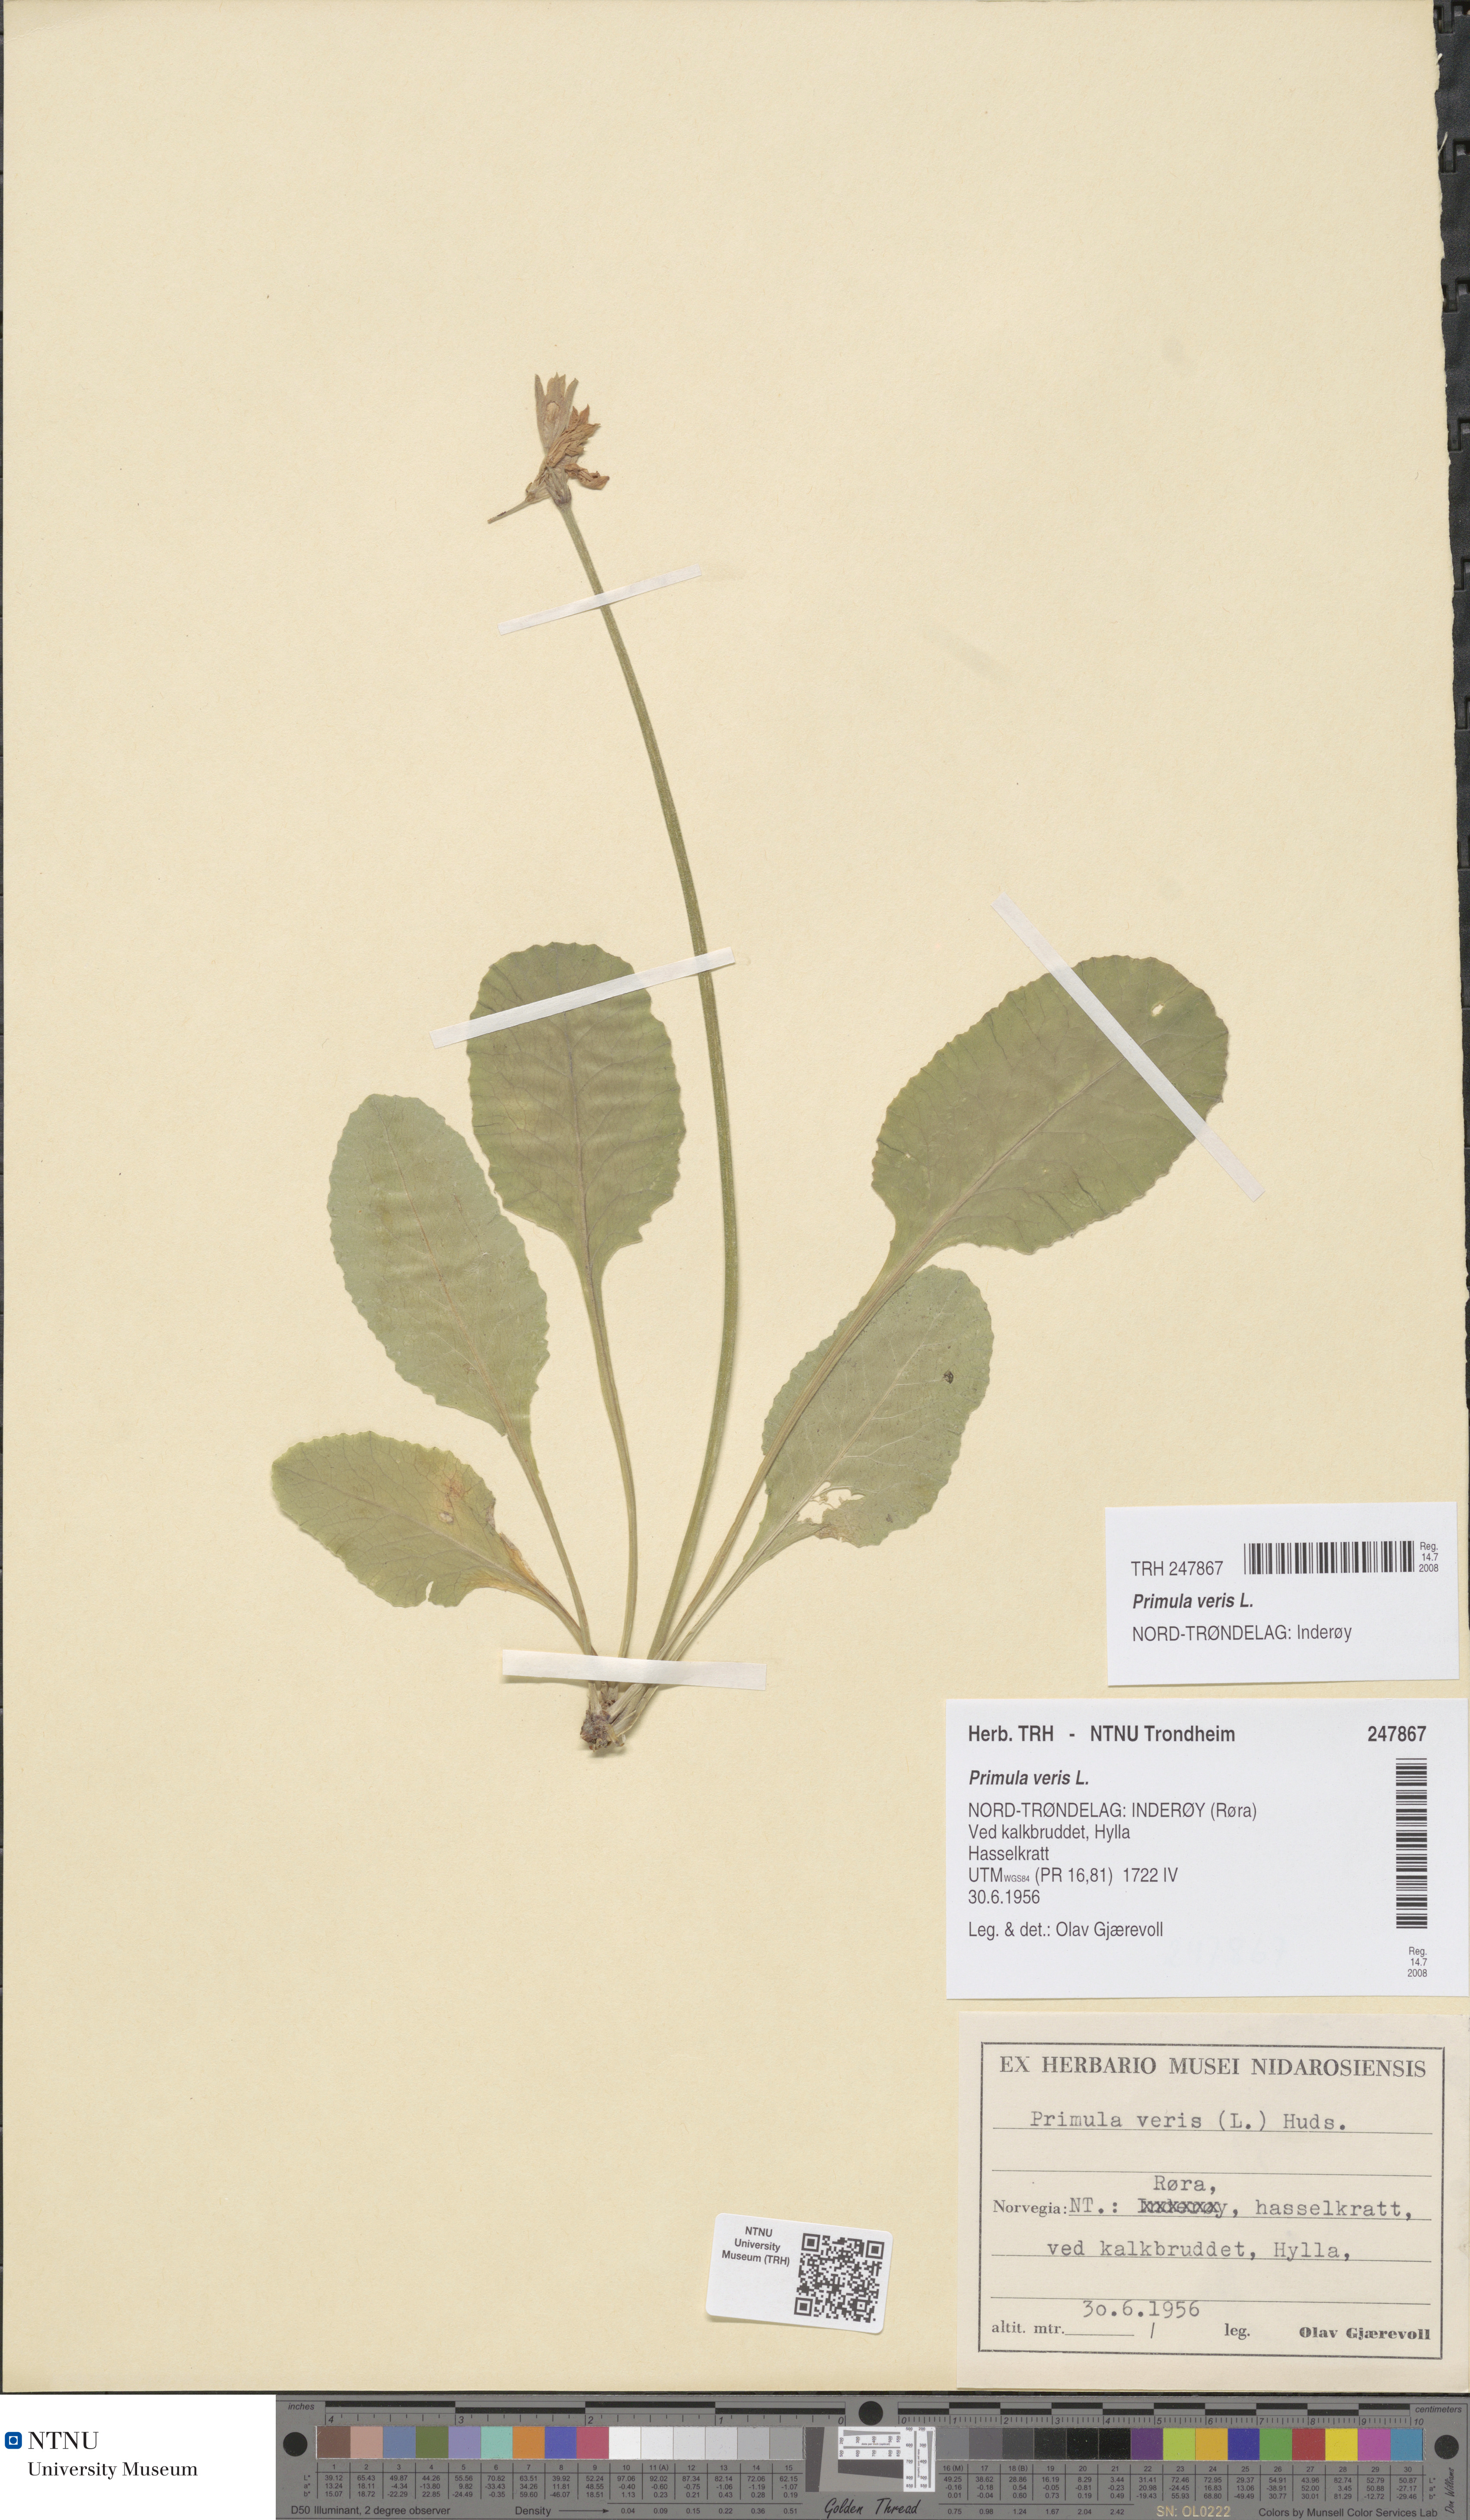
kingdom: Plantae
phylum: Tracheophyta
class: Magnoliopsida
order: Ericales
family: Primulaceae
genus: Primula
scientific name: Primula veris
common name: Cowslip
